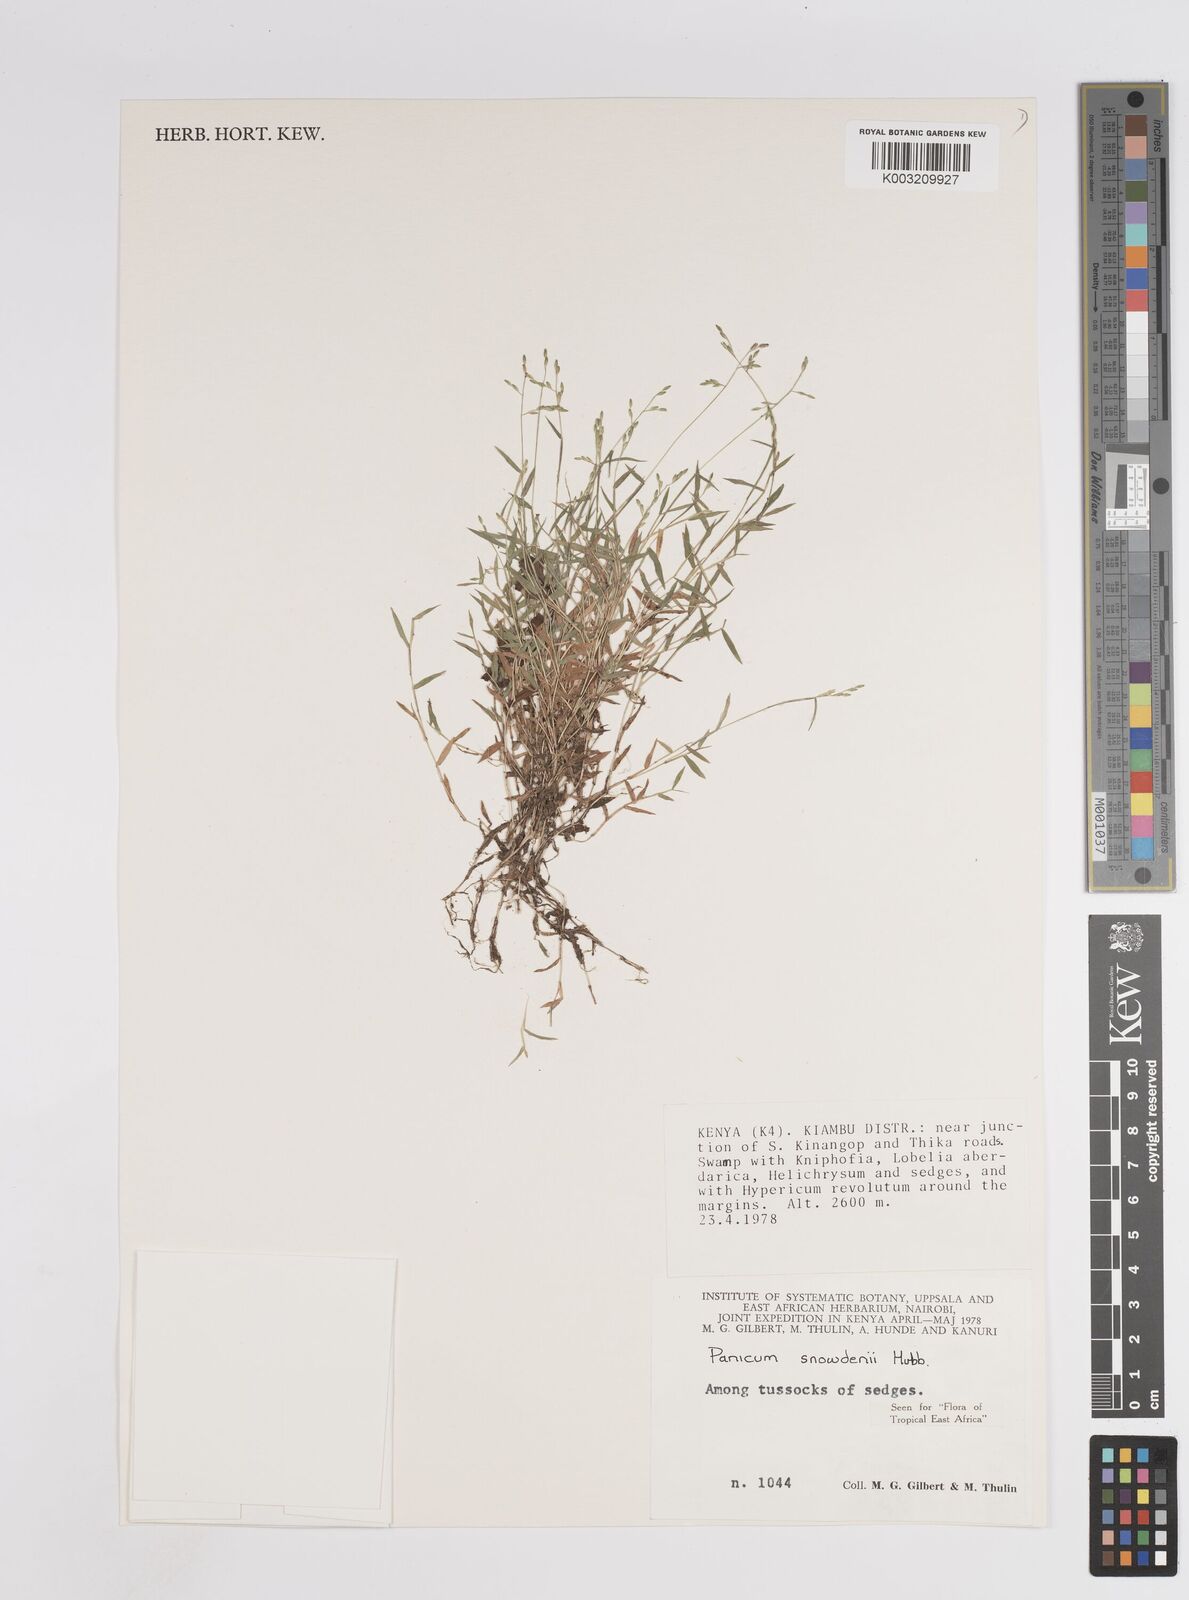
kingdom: Plantae
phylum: Tracheophyta
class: Liliopsida
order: Poales
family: Poaceae
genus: Adenochloa
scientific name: Adenochloa hymeniochila
